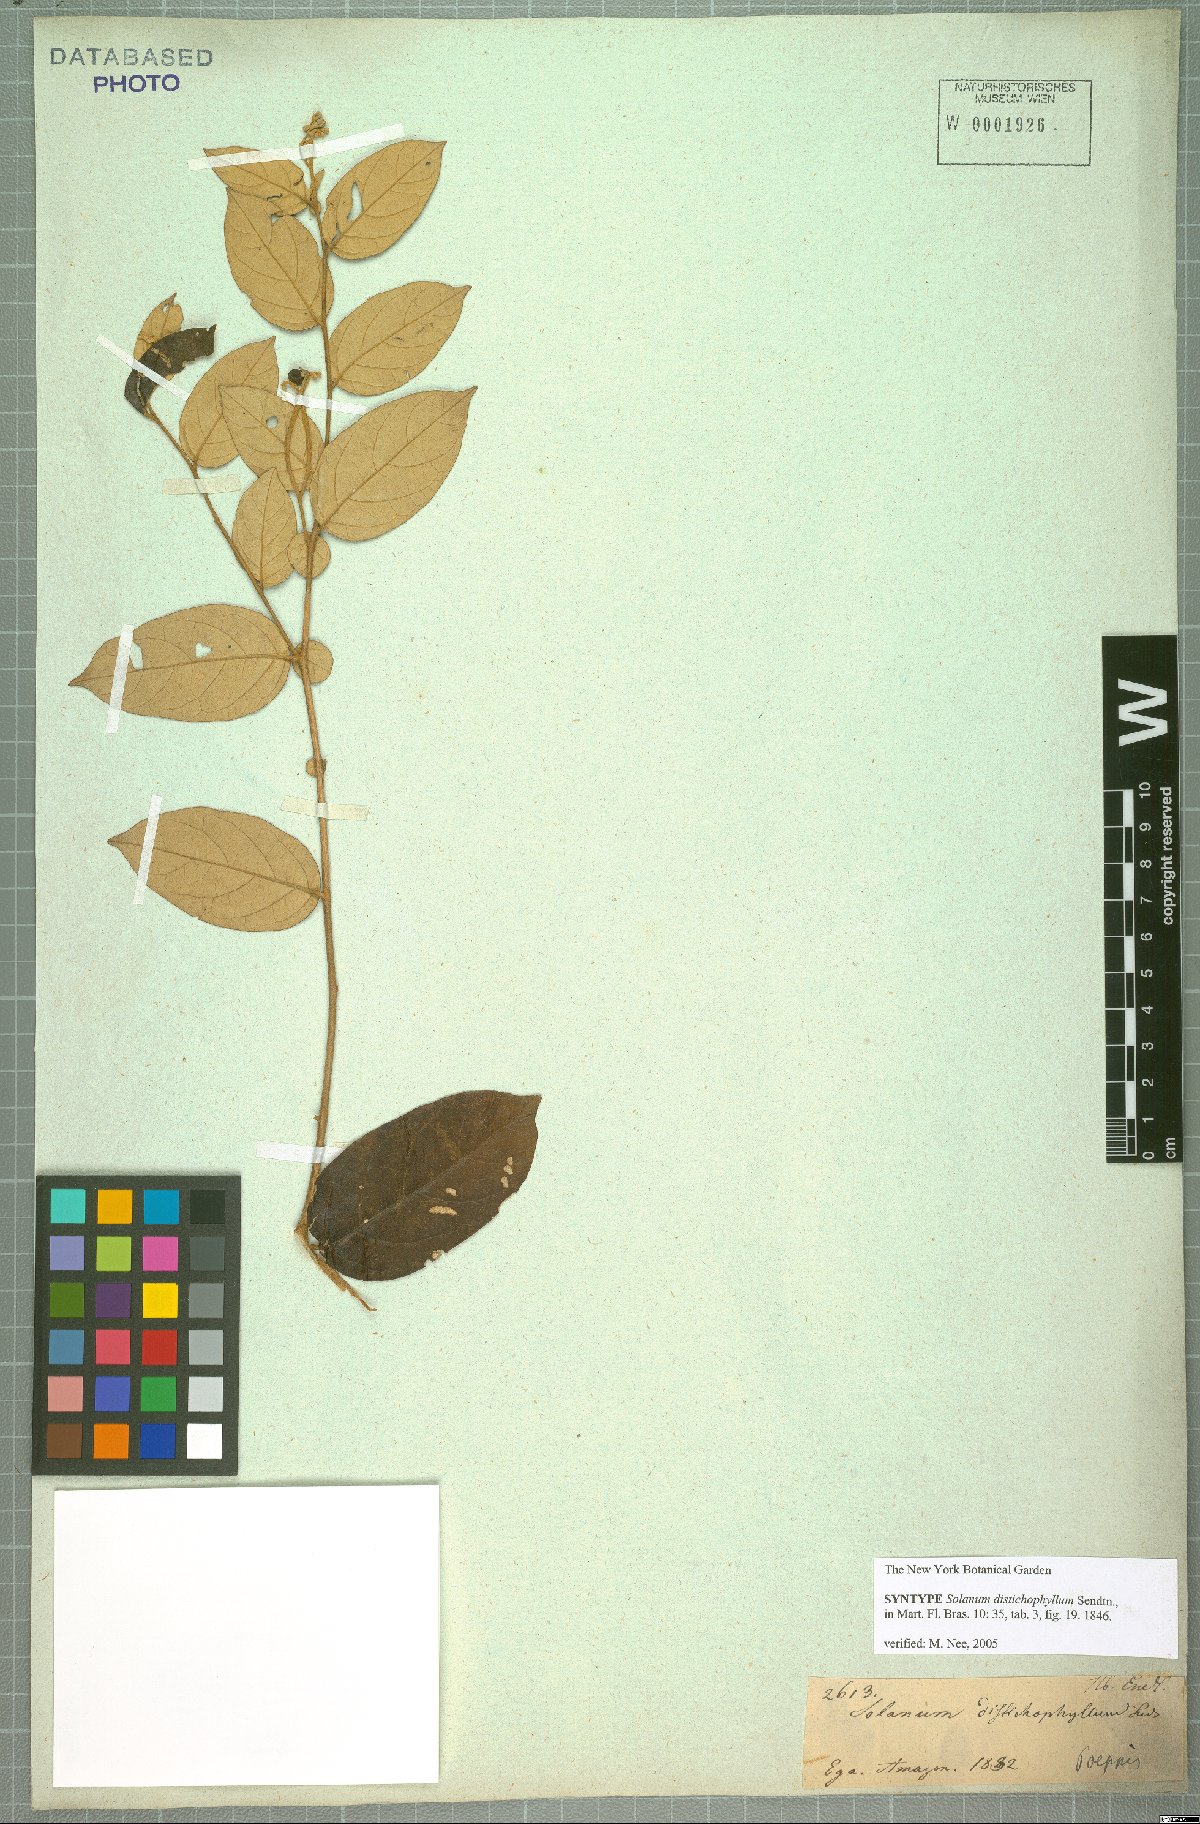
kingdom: Plantae
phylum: Tracheophyta
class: Magnoliopsida
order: Solanales
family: Solanaceae
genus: Solanum
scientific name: Solanum distichophyllum
